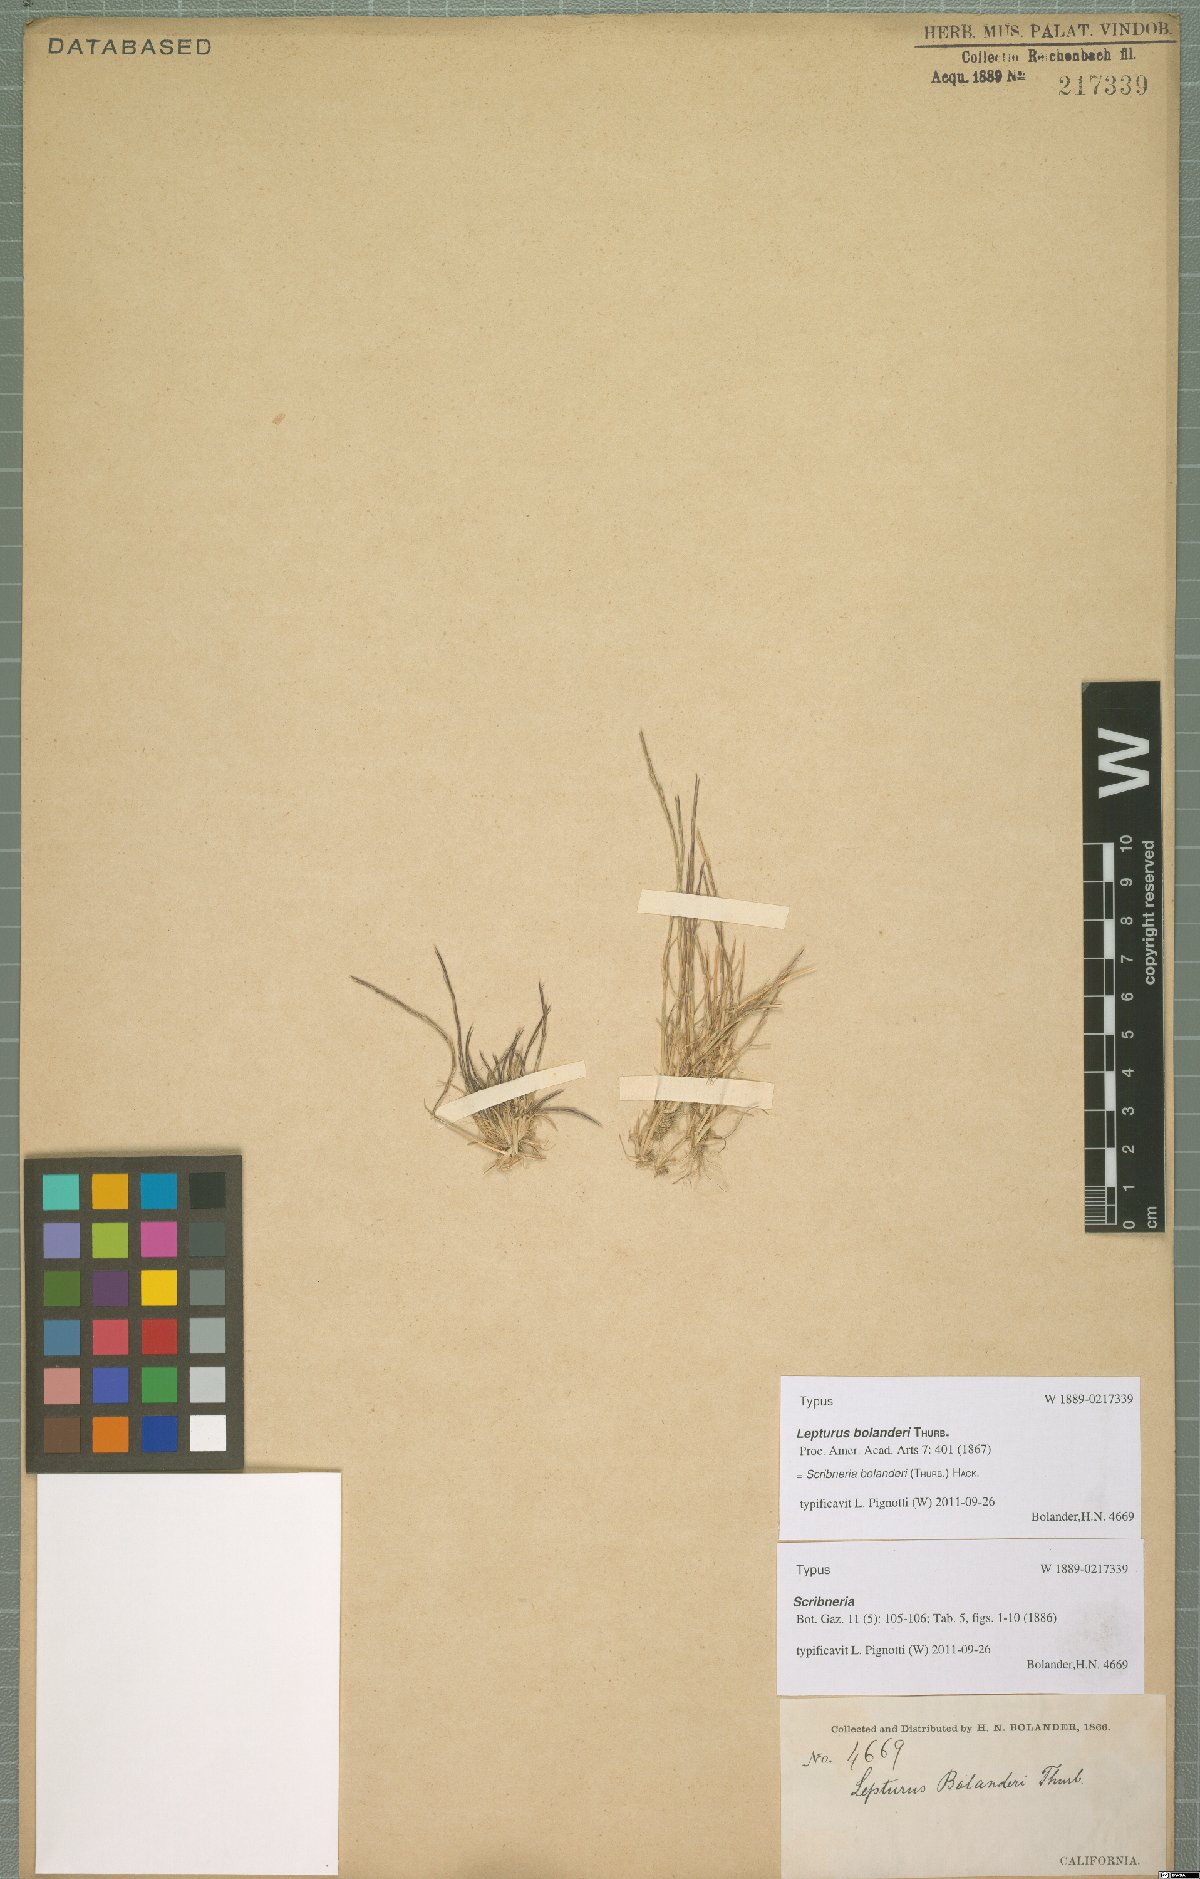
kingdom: Plantae
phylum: Tracheophyta
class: Liliopsida
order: Poales
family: Poaceae
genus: Deschampsia
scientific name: Deschampsia bolanderi
